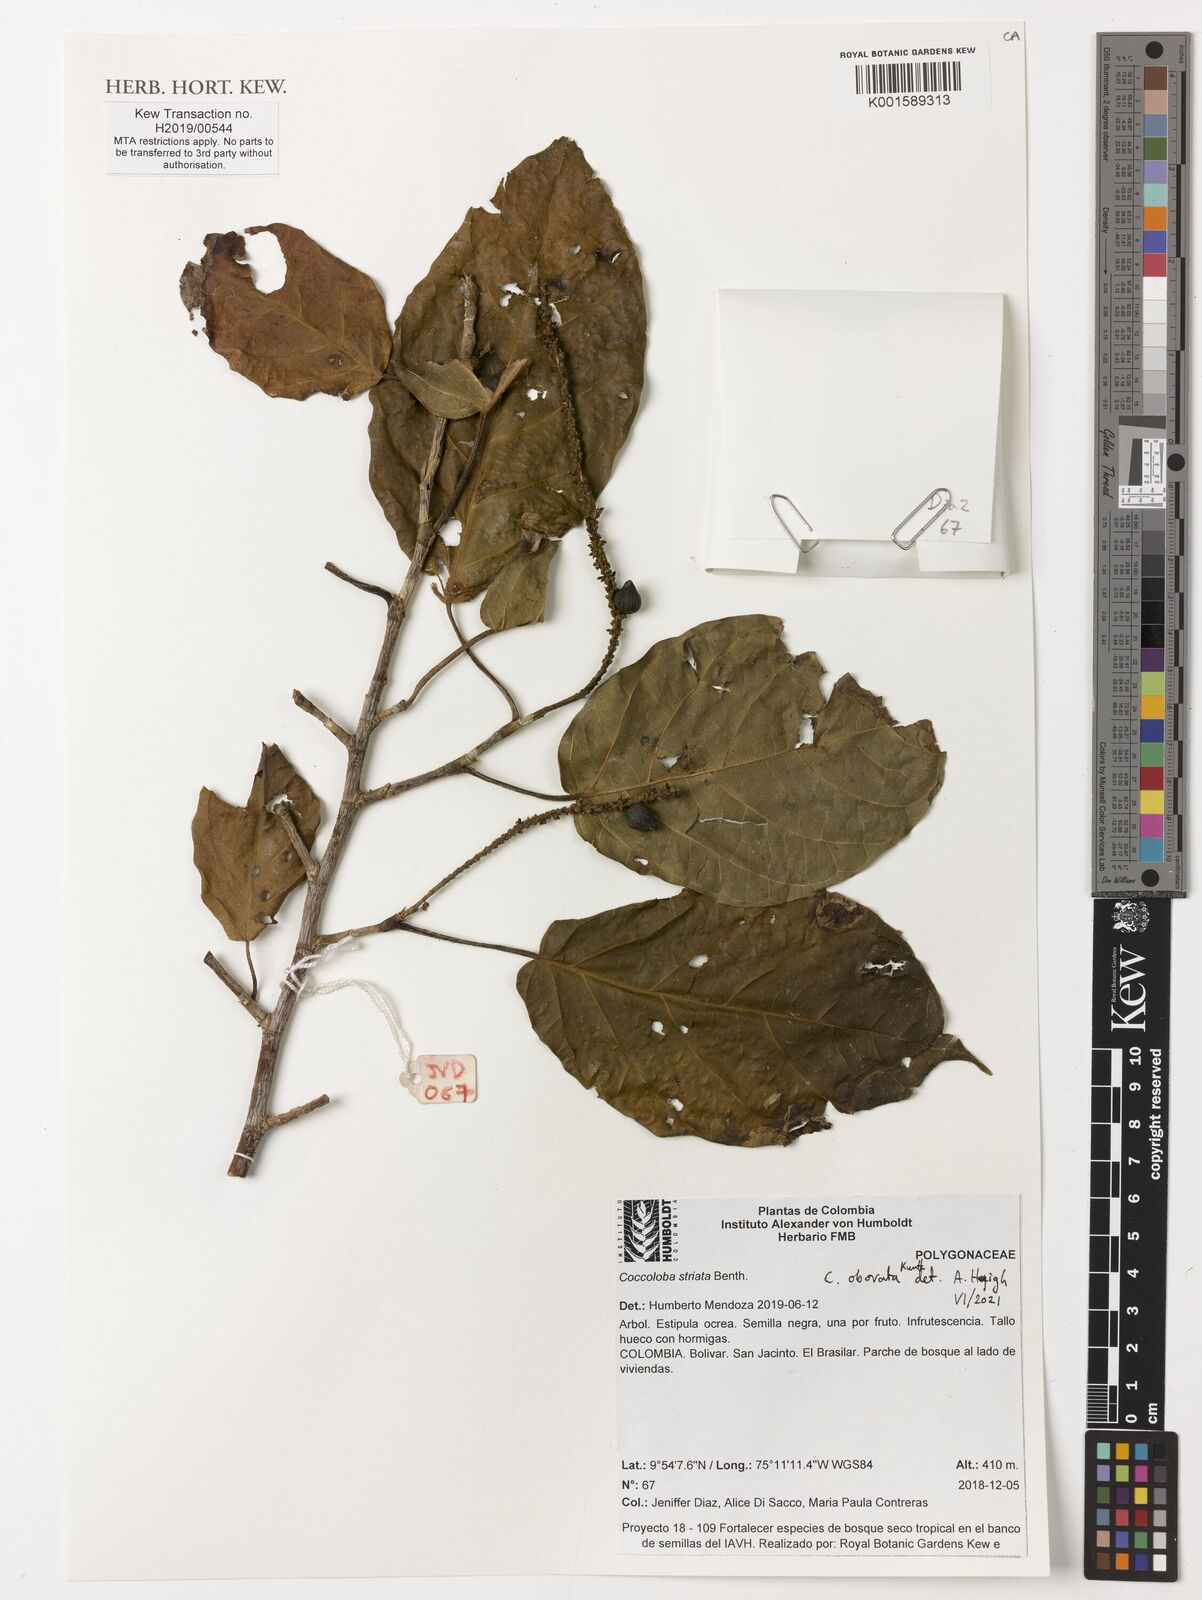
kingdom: Plantae
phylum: Tracheophyta
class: Magnoliopsida
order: Caryophyllales
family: Polygonaceae
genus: Coccoloba
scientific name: Coccoloba striata
